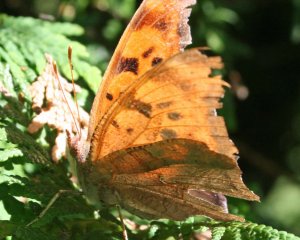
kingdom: Animalia
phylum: Arthropoda
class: Insecta
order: Lepidoptera
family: Nymphalidae
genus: Polygonia
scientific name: Polygonia interrogationis
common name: Question Mark
